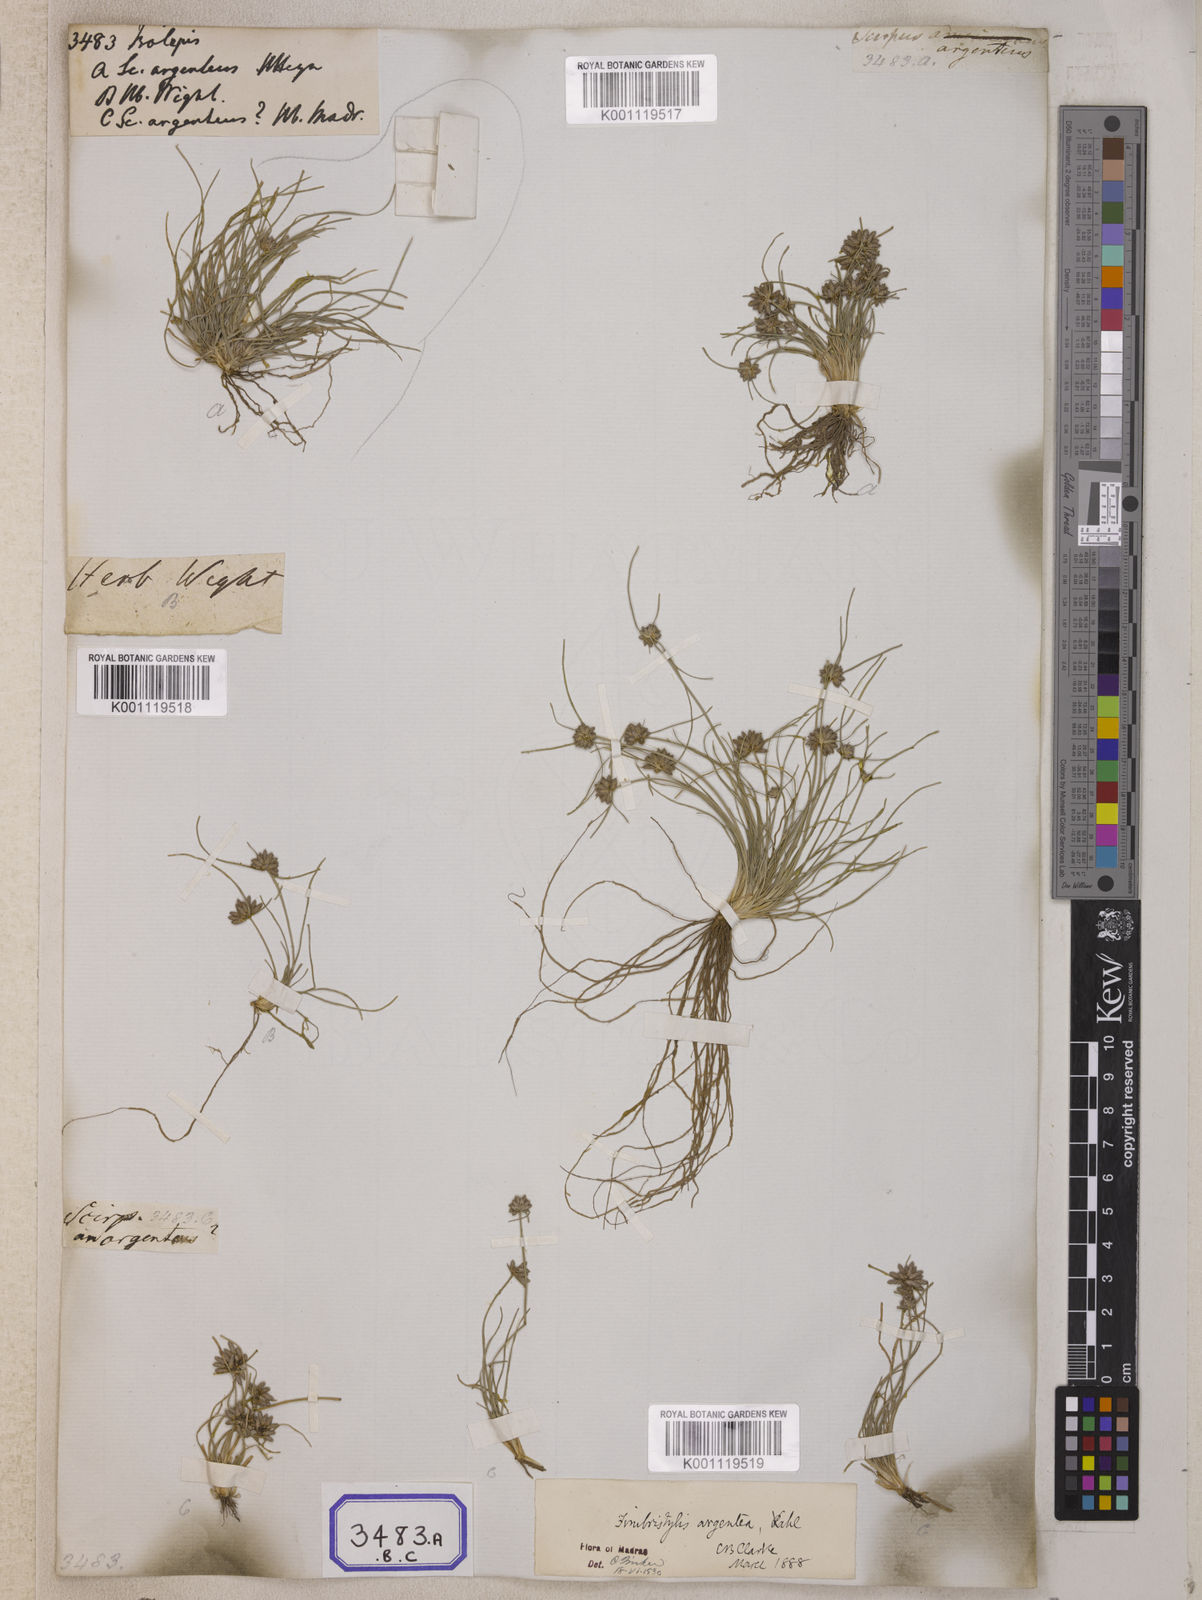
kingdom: Plantae
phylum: Tracheophyta
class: Liliopsida
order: Poales
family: Cyperaceae
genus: Isolepis
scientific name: Isolepis
